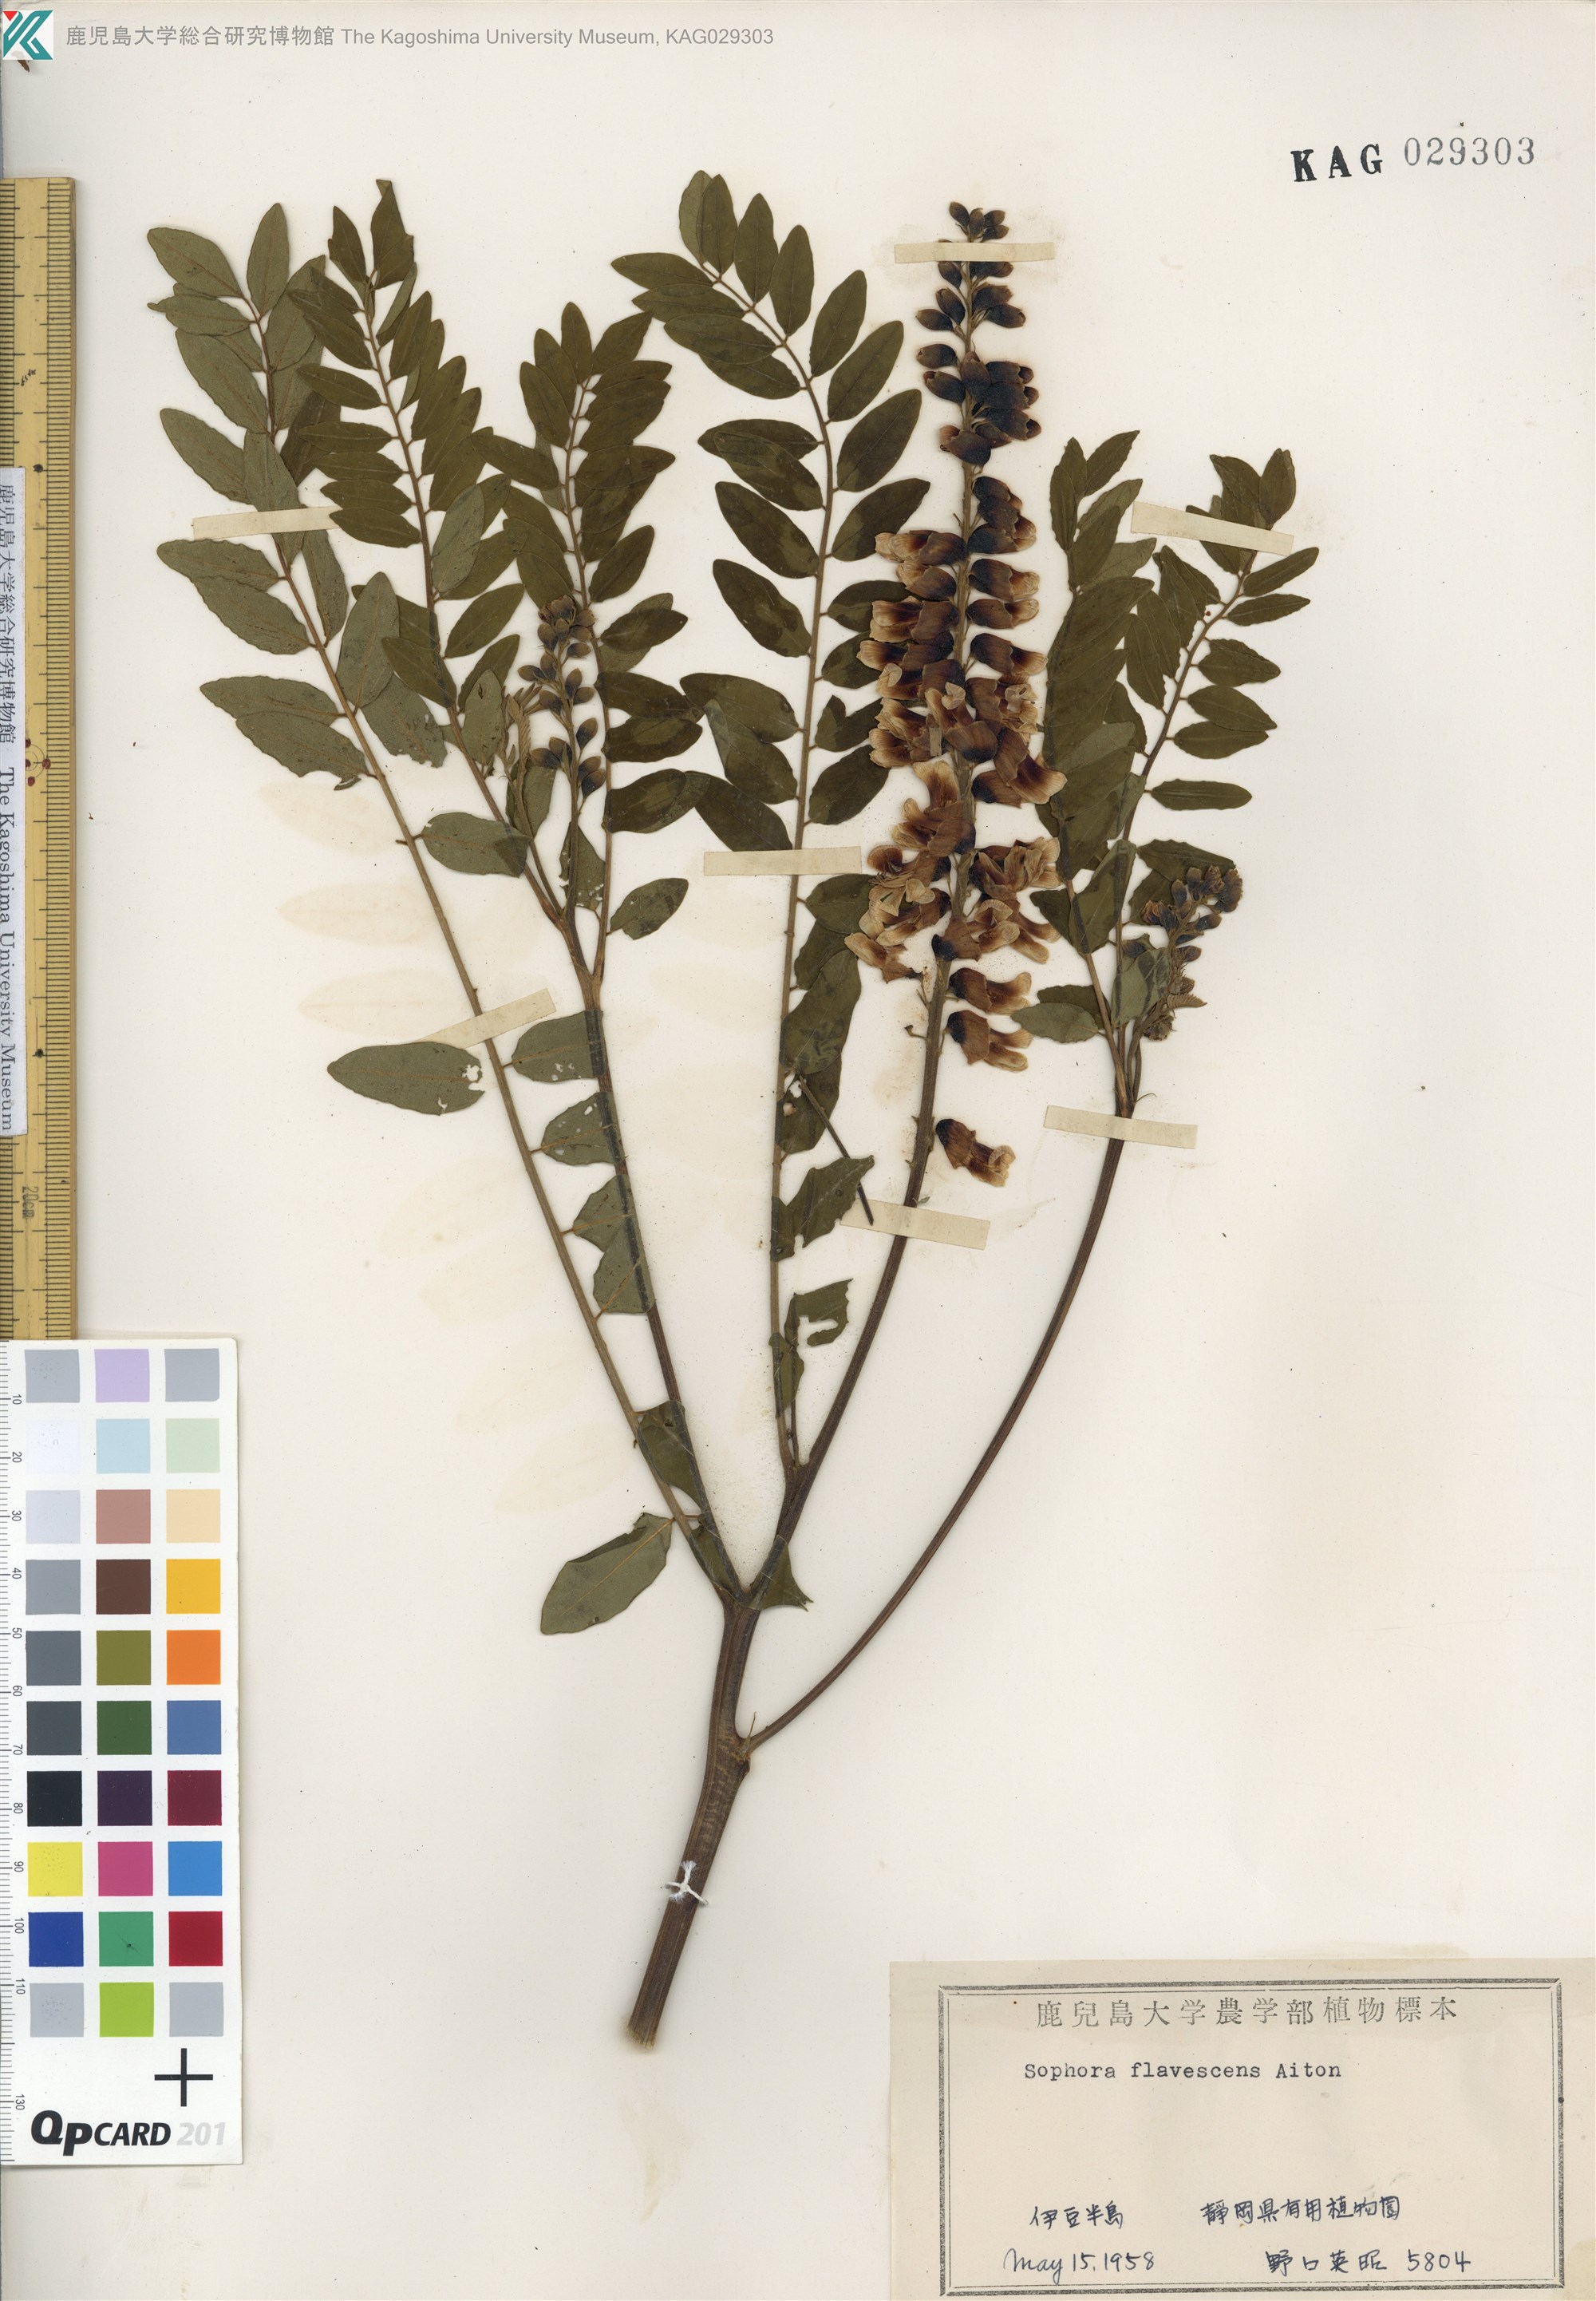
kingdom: Plantae
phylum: Tracheophyta
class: Magnoliopsida
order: Fabales
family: Fabaceae
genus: Sophora
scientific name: Sophora flavescens
